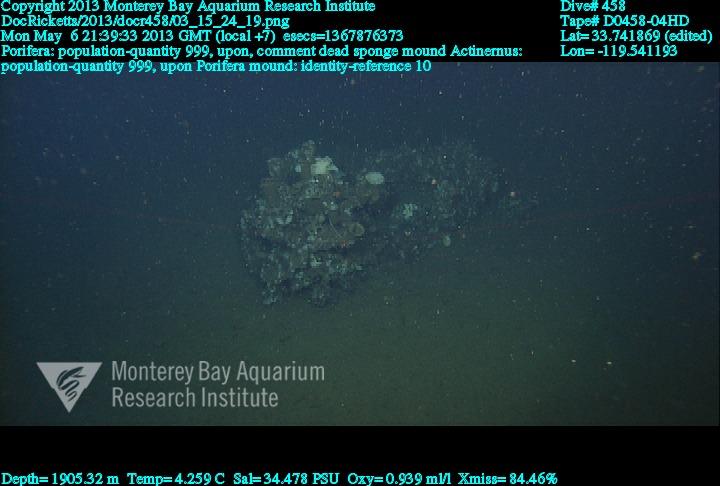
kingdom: Animalia
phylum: Porifera
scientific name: Porifera
